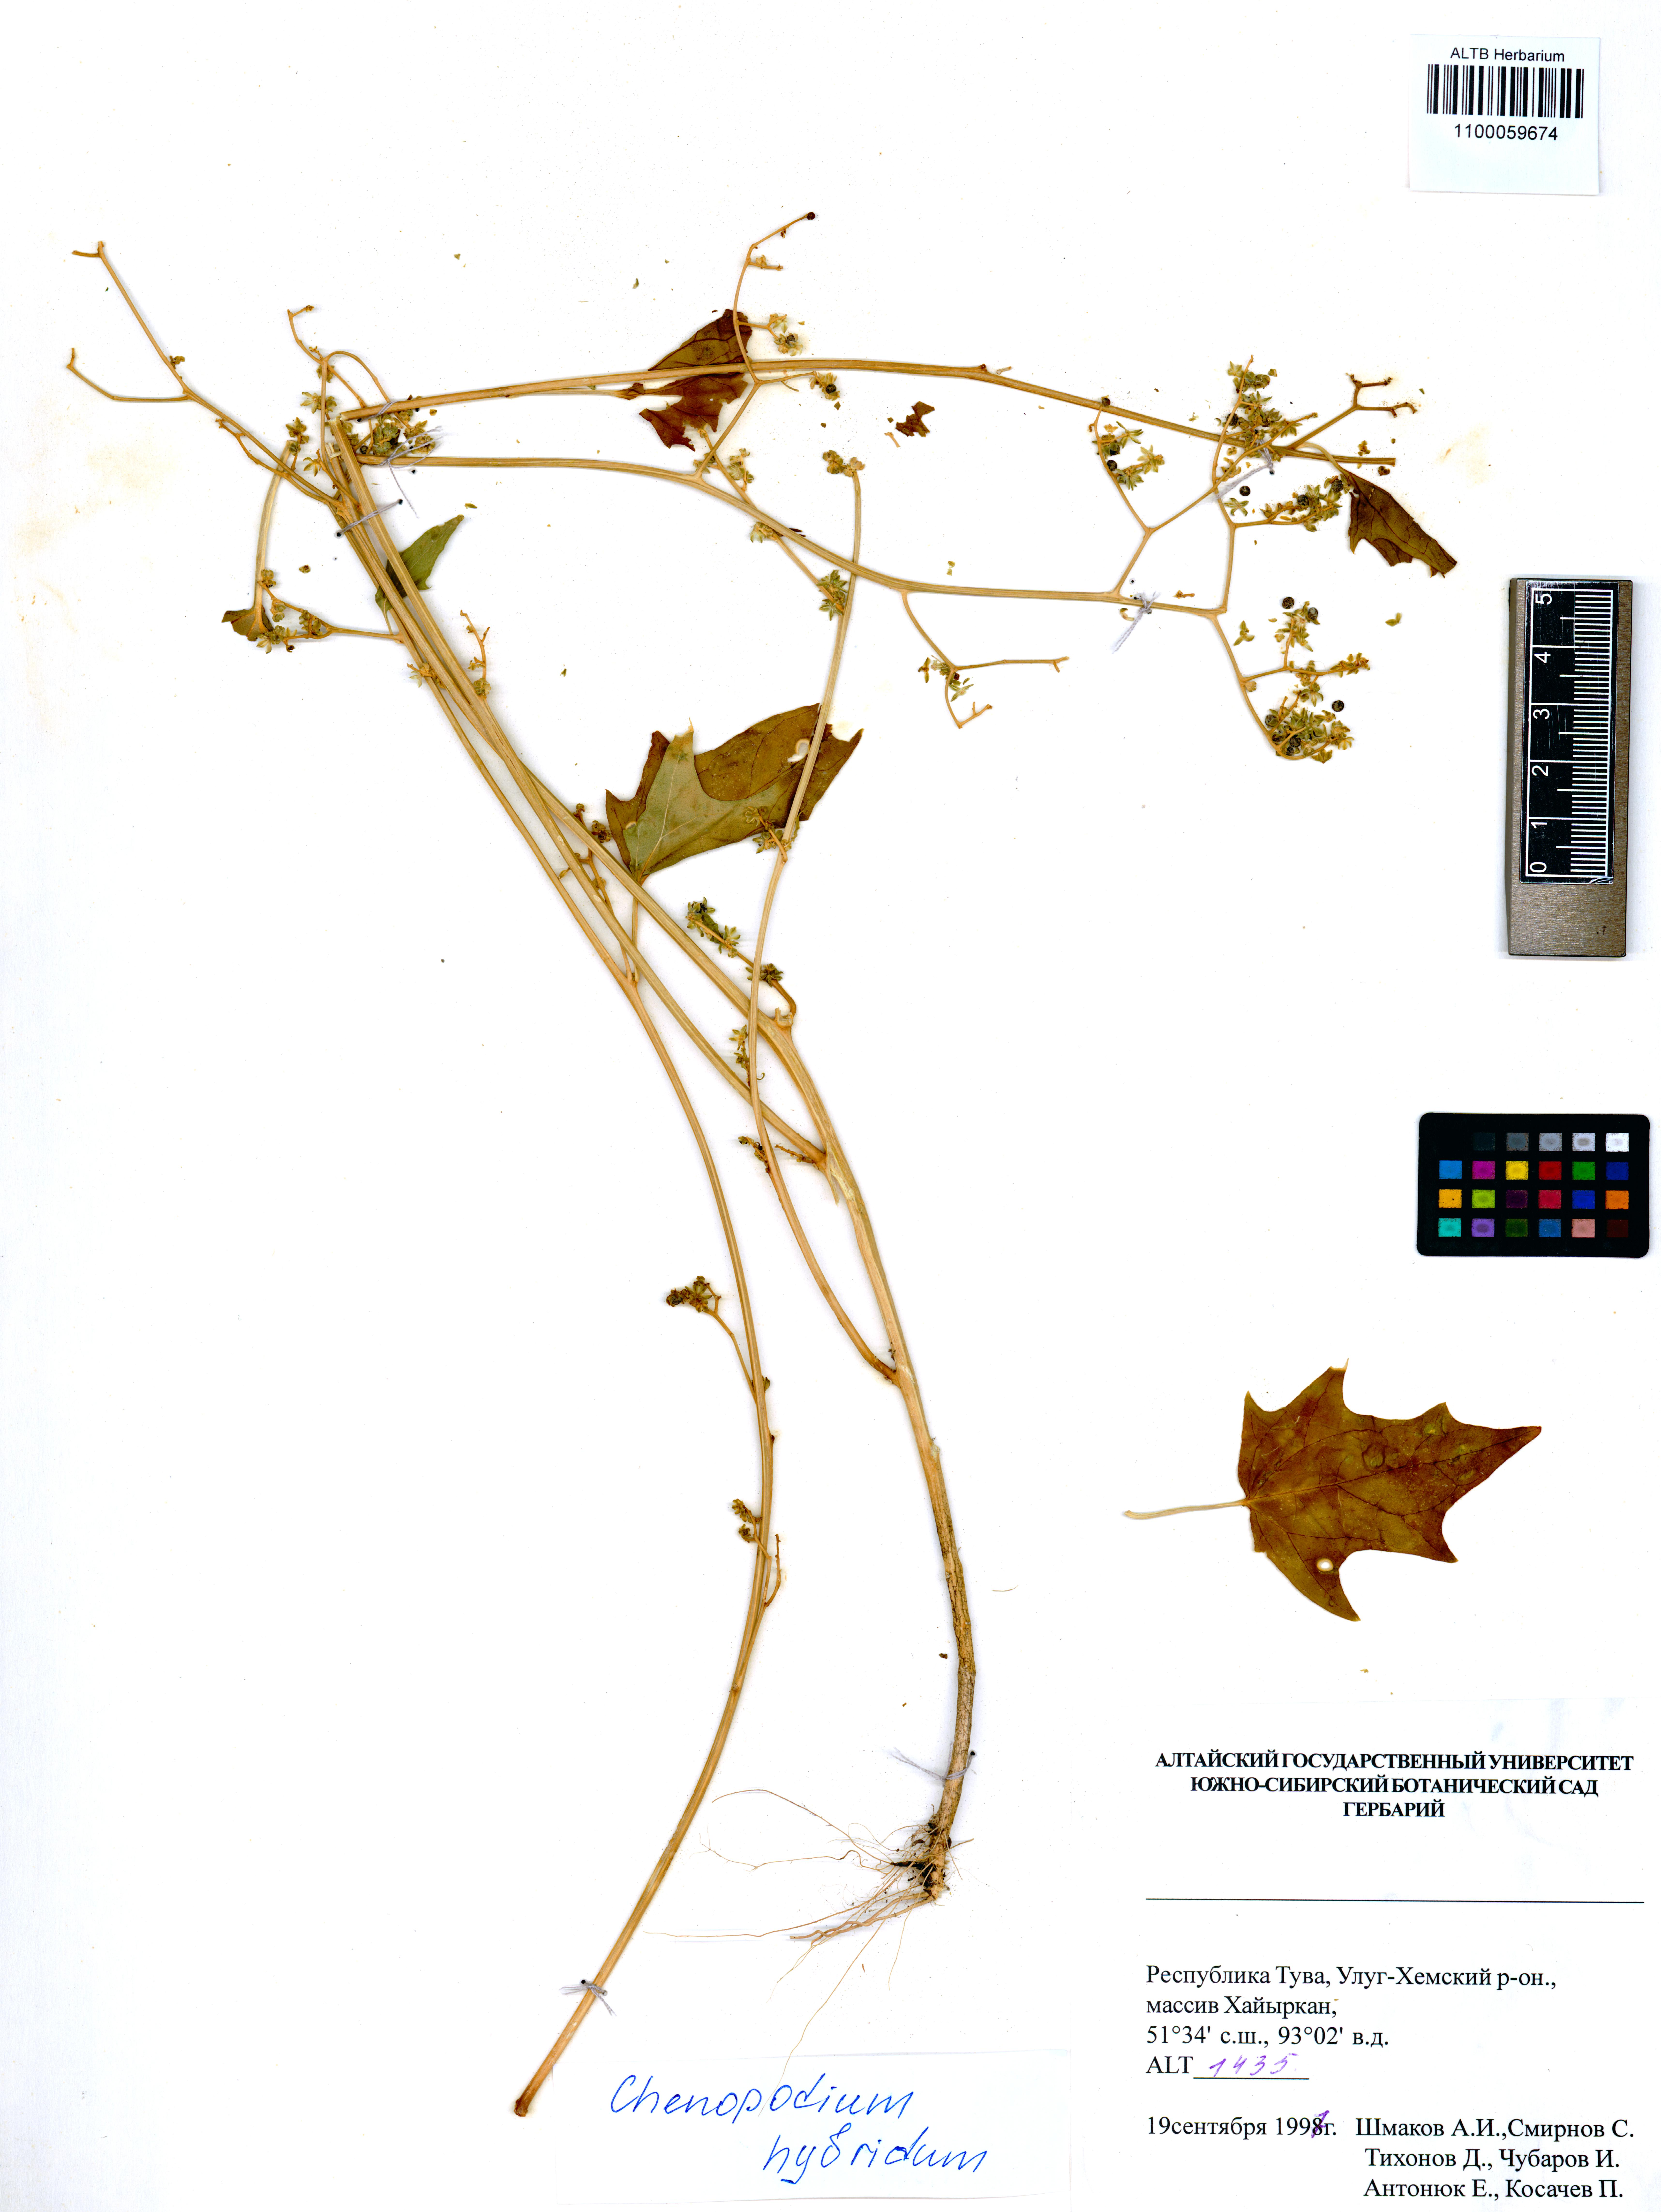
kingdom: Plantae
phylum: Tracheophyta
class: Magnoliopsida
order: Caryophyllales
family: Amaranthaceae
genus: Chenopodiastrum
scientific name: Chenopodiastrum hybridum
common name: Mapleleaf goosefoot
